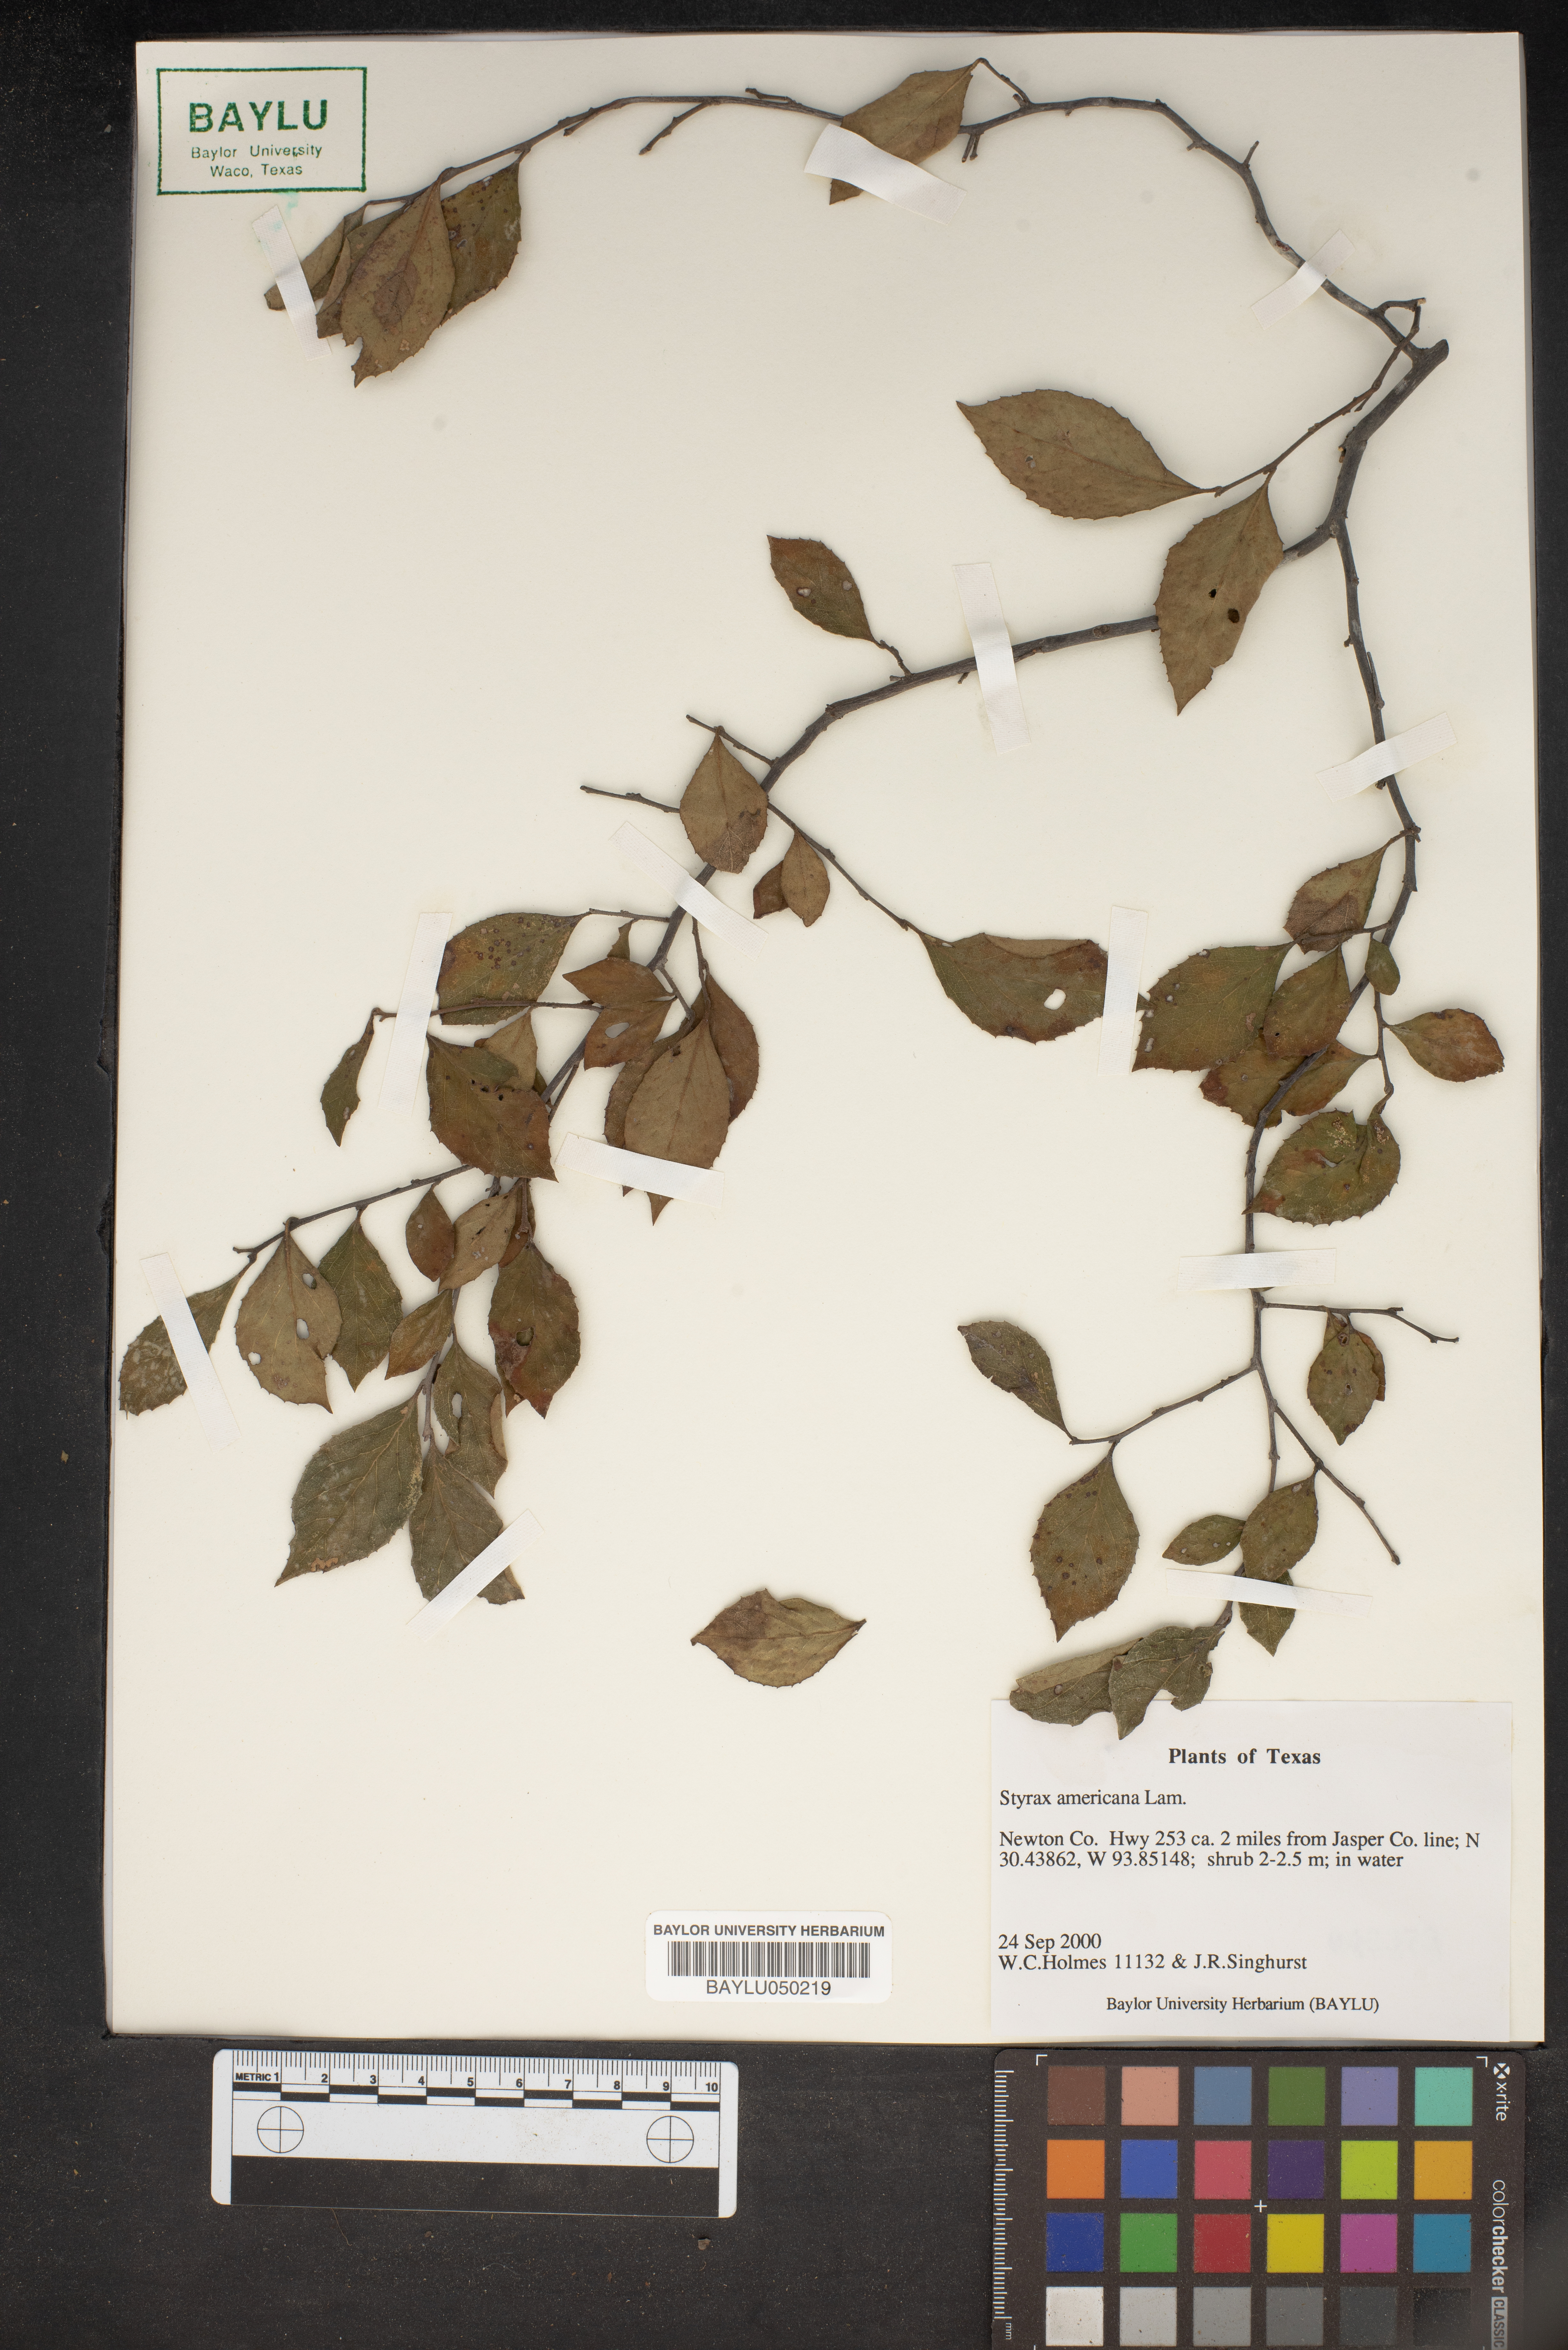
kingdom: Plantae
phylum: Tracheophyta
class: Magnoliopsida
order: Ericales
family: Styracaceae
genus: Styrax
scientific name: Styrax americanus
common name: American snowbell
